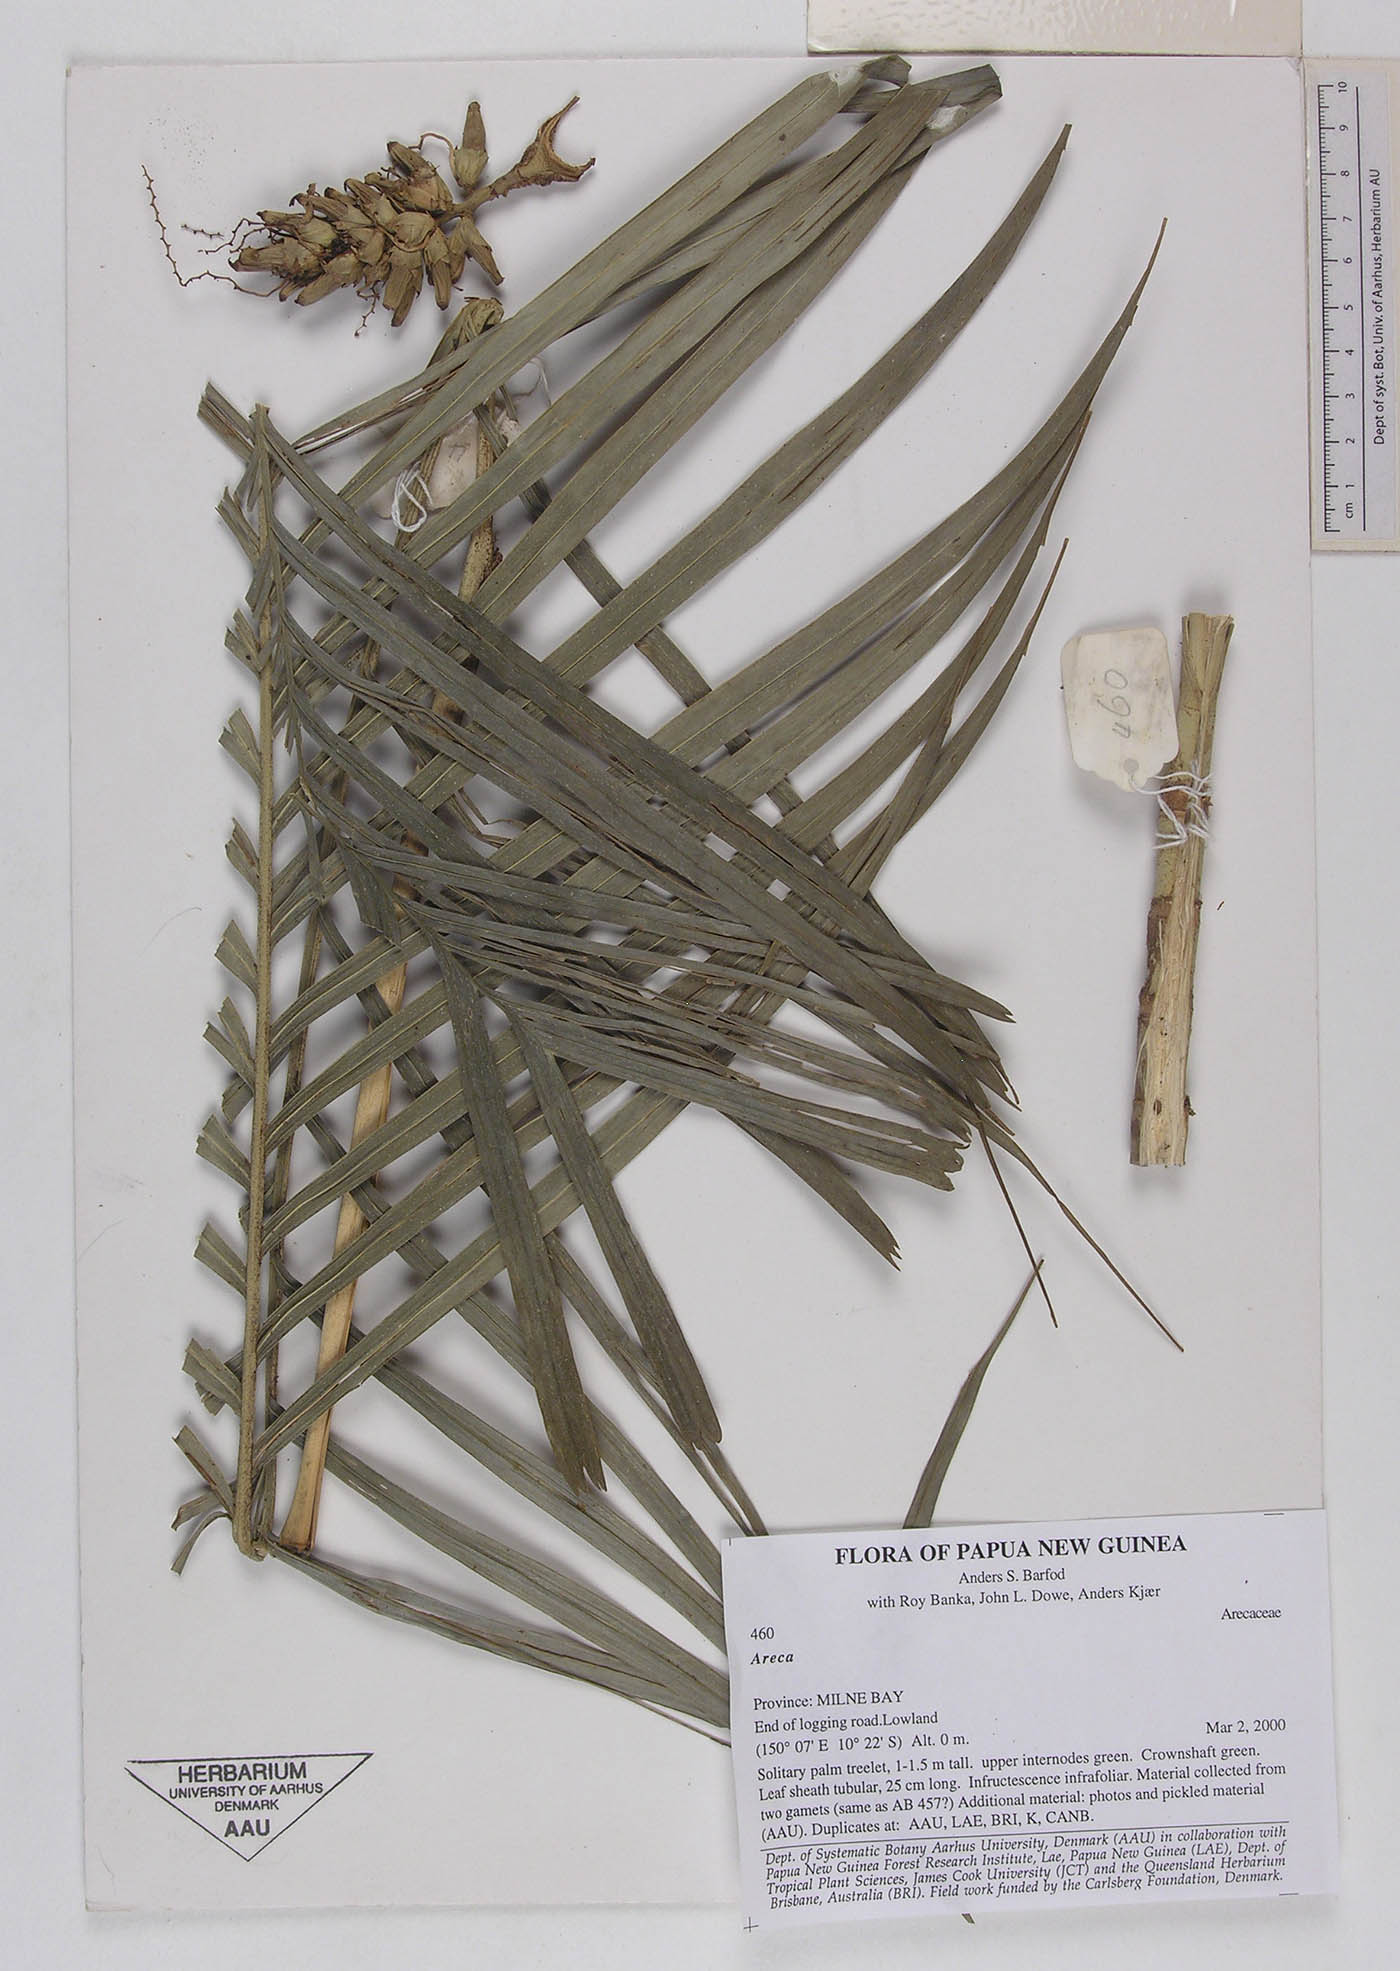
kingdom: Plantae
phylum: Tracheophyta
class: Liliopsida
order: Arecales
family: Arecaceae
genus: Areca
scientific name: Areca
